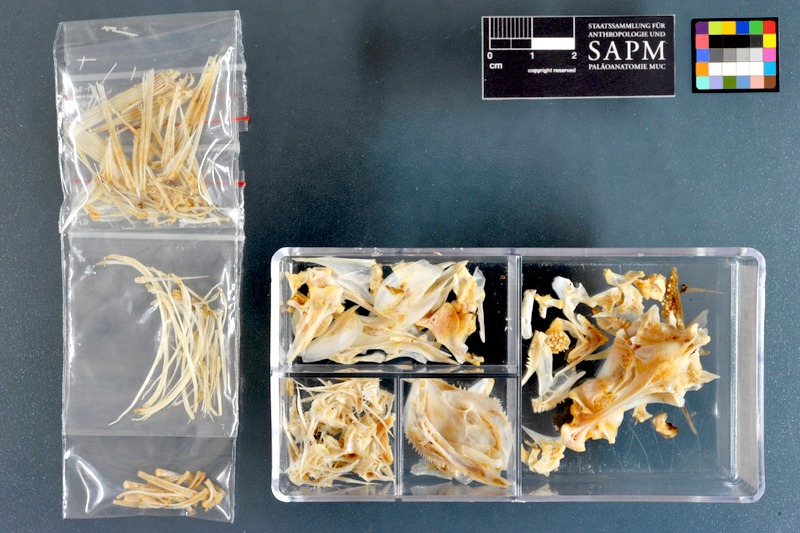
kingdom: Animalia
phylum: Chordata
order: Perciformes
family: Haemulidae
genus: Pomadasys
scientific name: Pomadasys stridens
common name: Striped piggy
